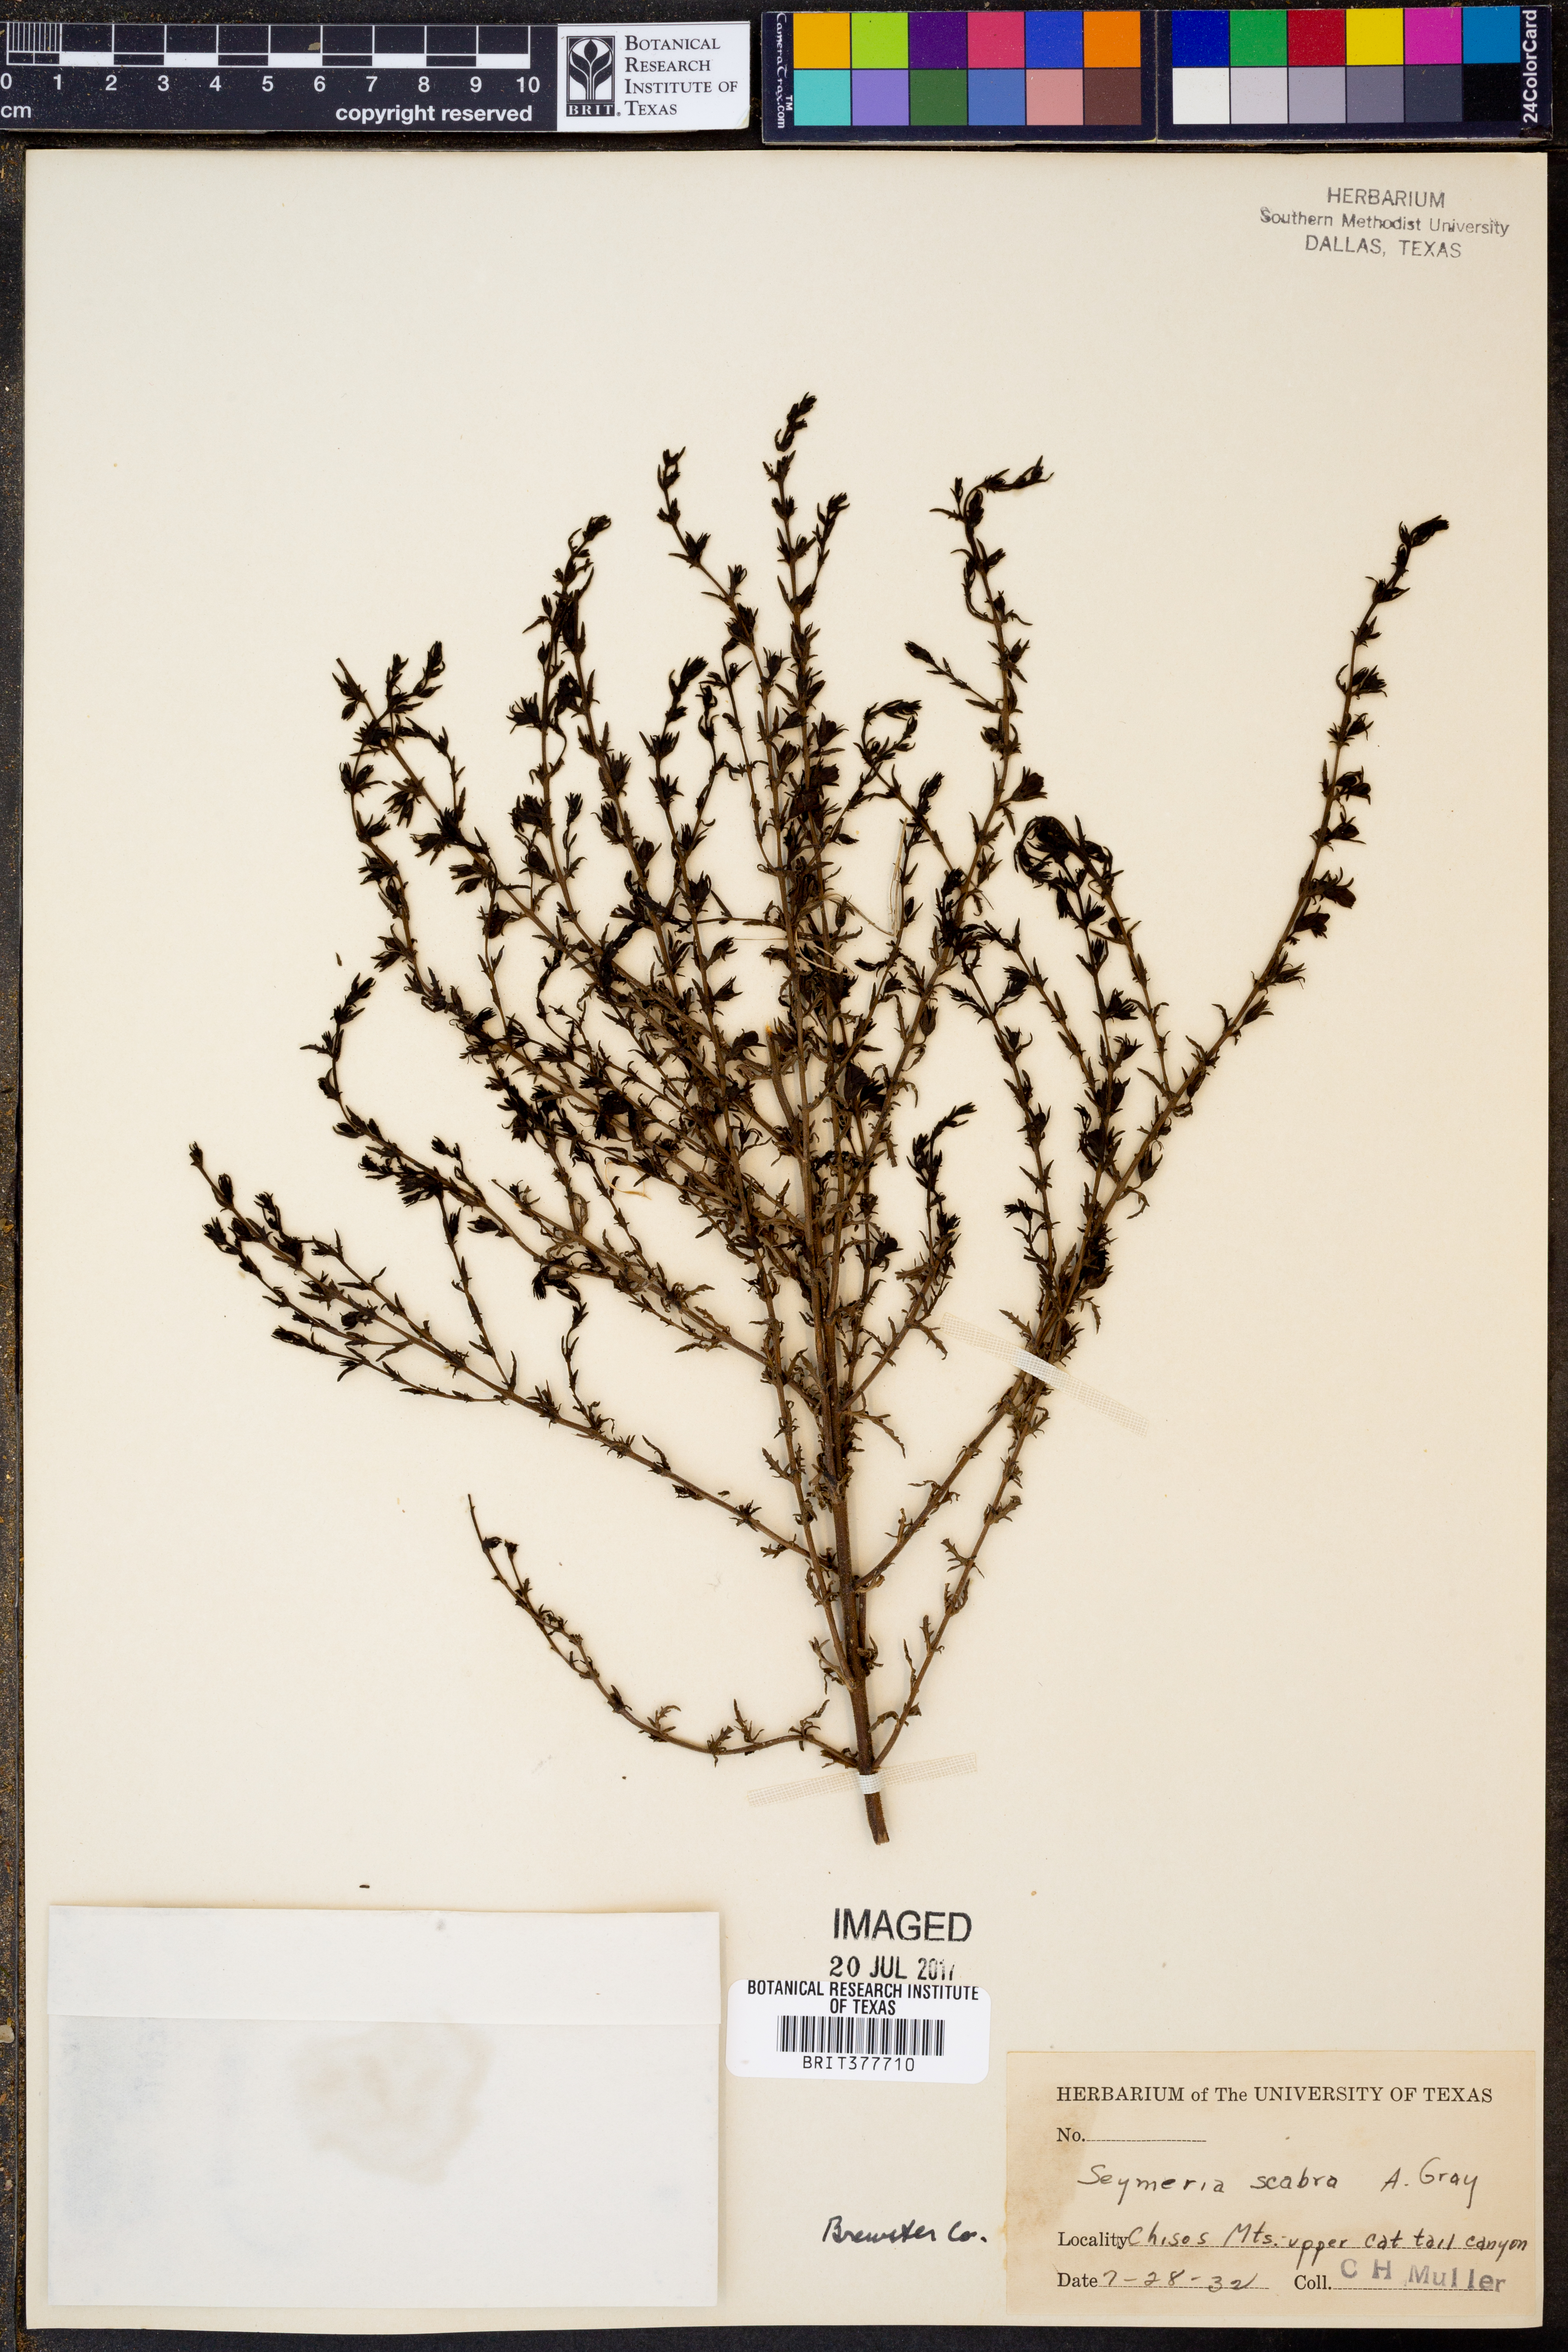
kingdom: Plantae
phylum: Tracheophyta
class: Magnoliopsida
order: Lamiales
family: Orobanchaceae
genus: Seymeria
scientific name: Seymeria scabra
